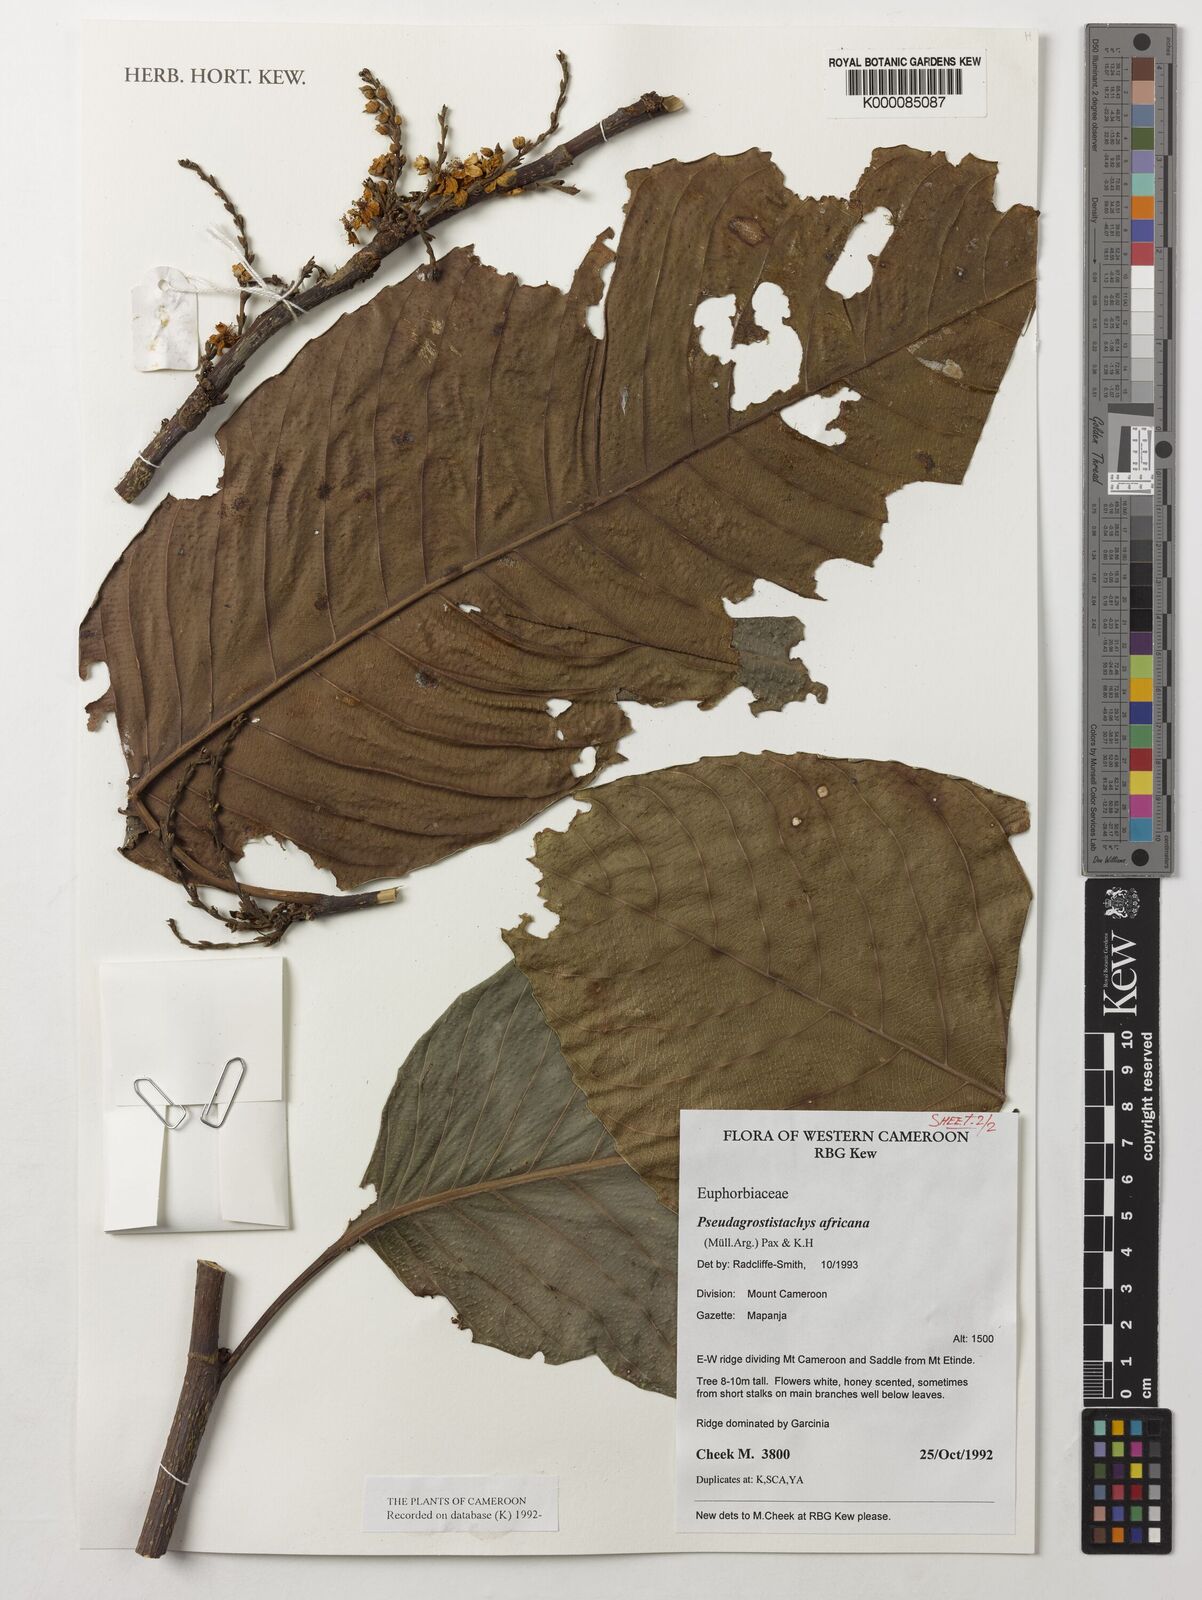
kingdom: Plantae
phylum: Tracheophyta
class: Magnoliopsida
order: Malpighiales
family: Euphorbiaceae
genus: Pseudagrostistachys
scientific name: Pseudagrostistachys
